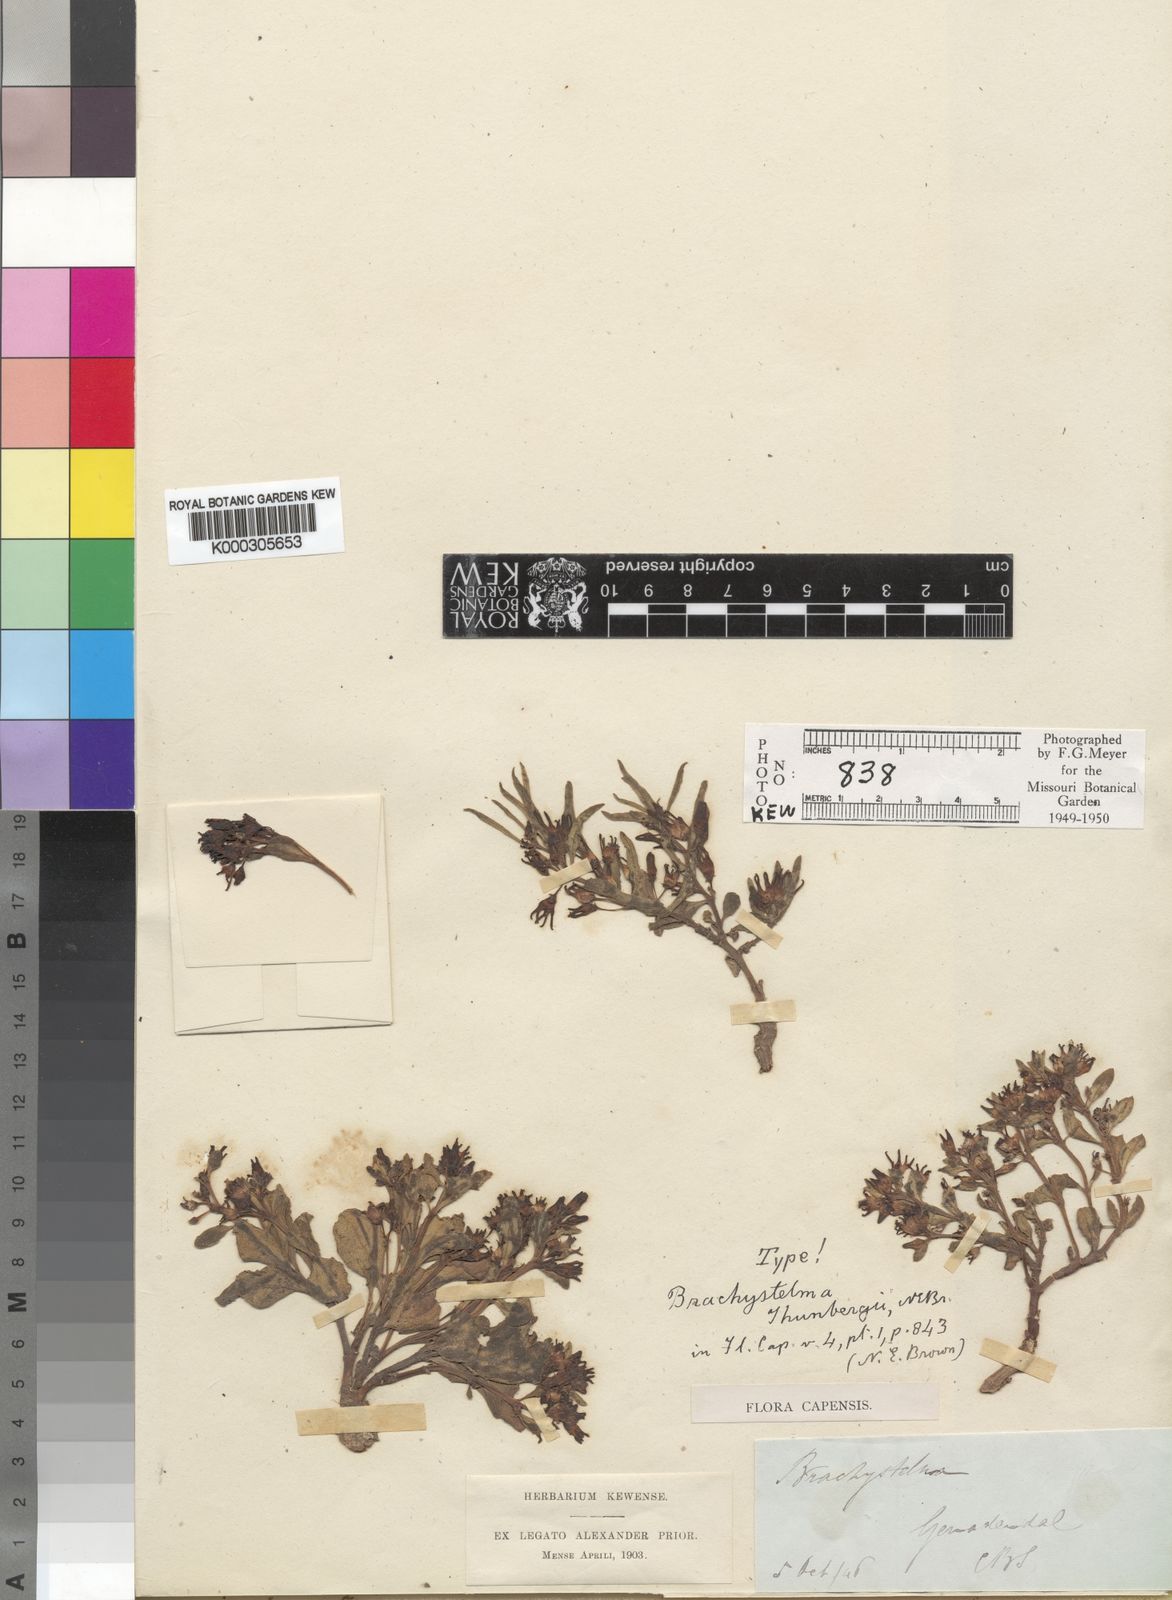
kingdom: Plantae
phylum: Tracheophyta
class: Magnoliopsida
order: Gentianales
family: Apocynaceae
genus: Ceropegia
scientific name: Ceropegia thunbergii
